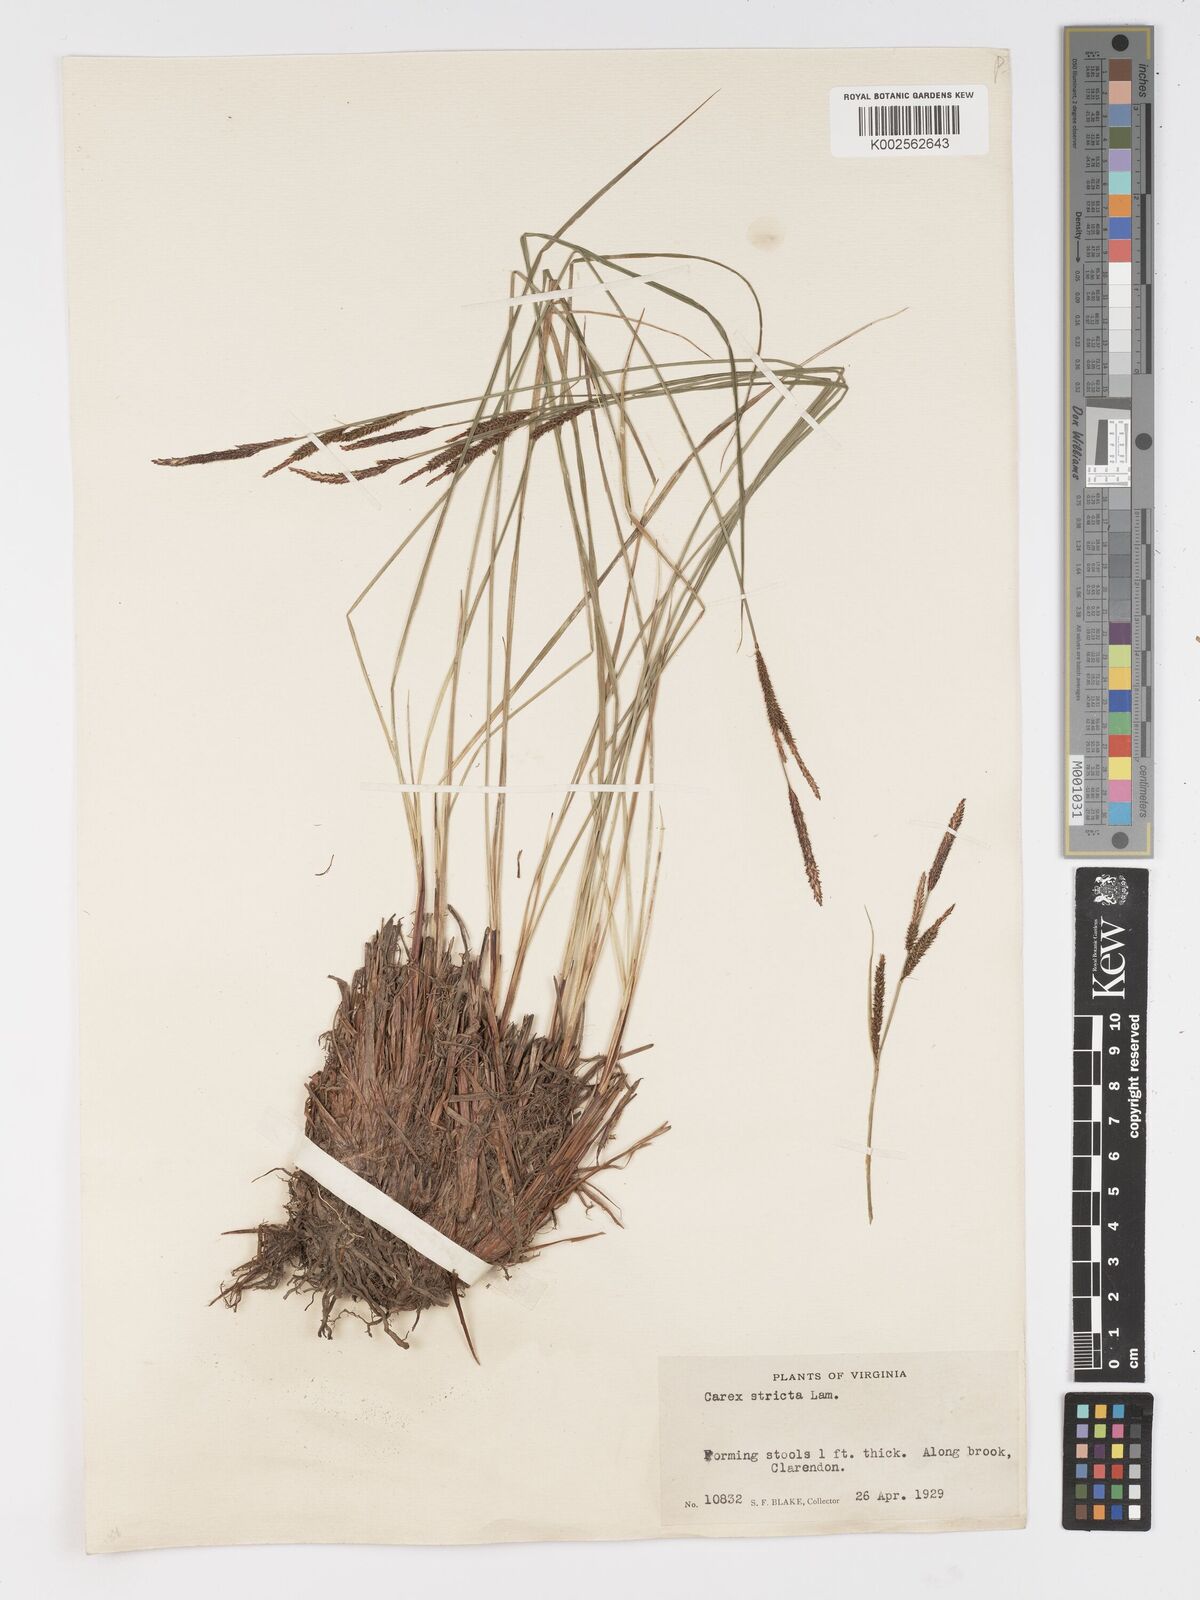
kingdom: Plantae
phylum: Tracheophyta
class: Liliopsida
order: Poales
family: Cyperaceae
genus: Carex
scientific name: Carex stricta
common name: Hummock sedge
